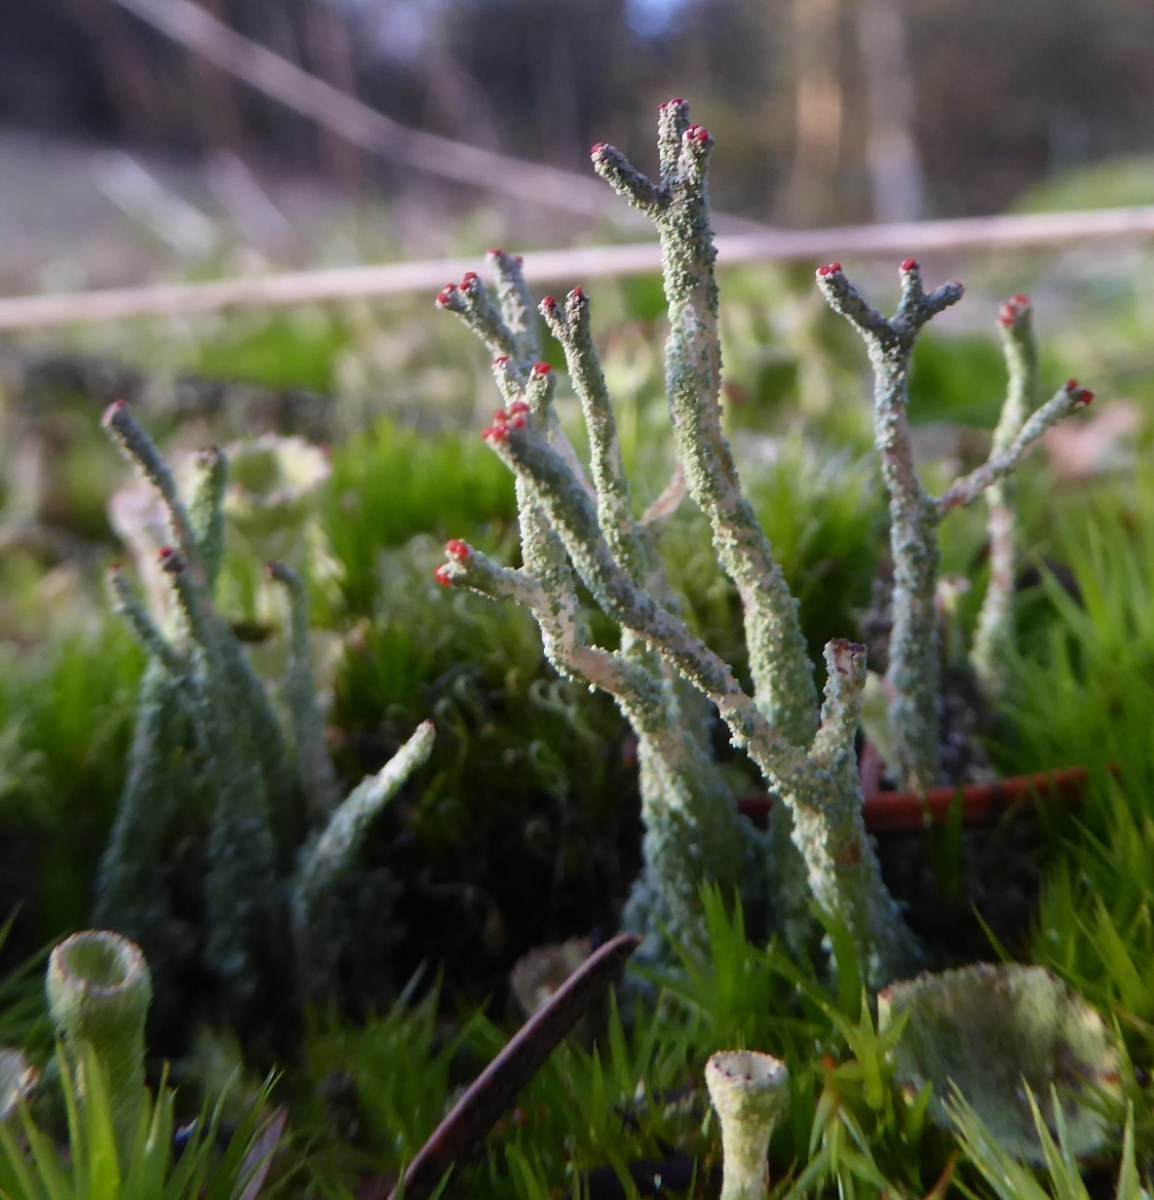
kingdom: Fungi
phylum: Ascomycota
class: Lecanoromycetes
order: Lecanorales
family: Cladoniaceae
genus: Cladonia
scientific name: Cladonia
